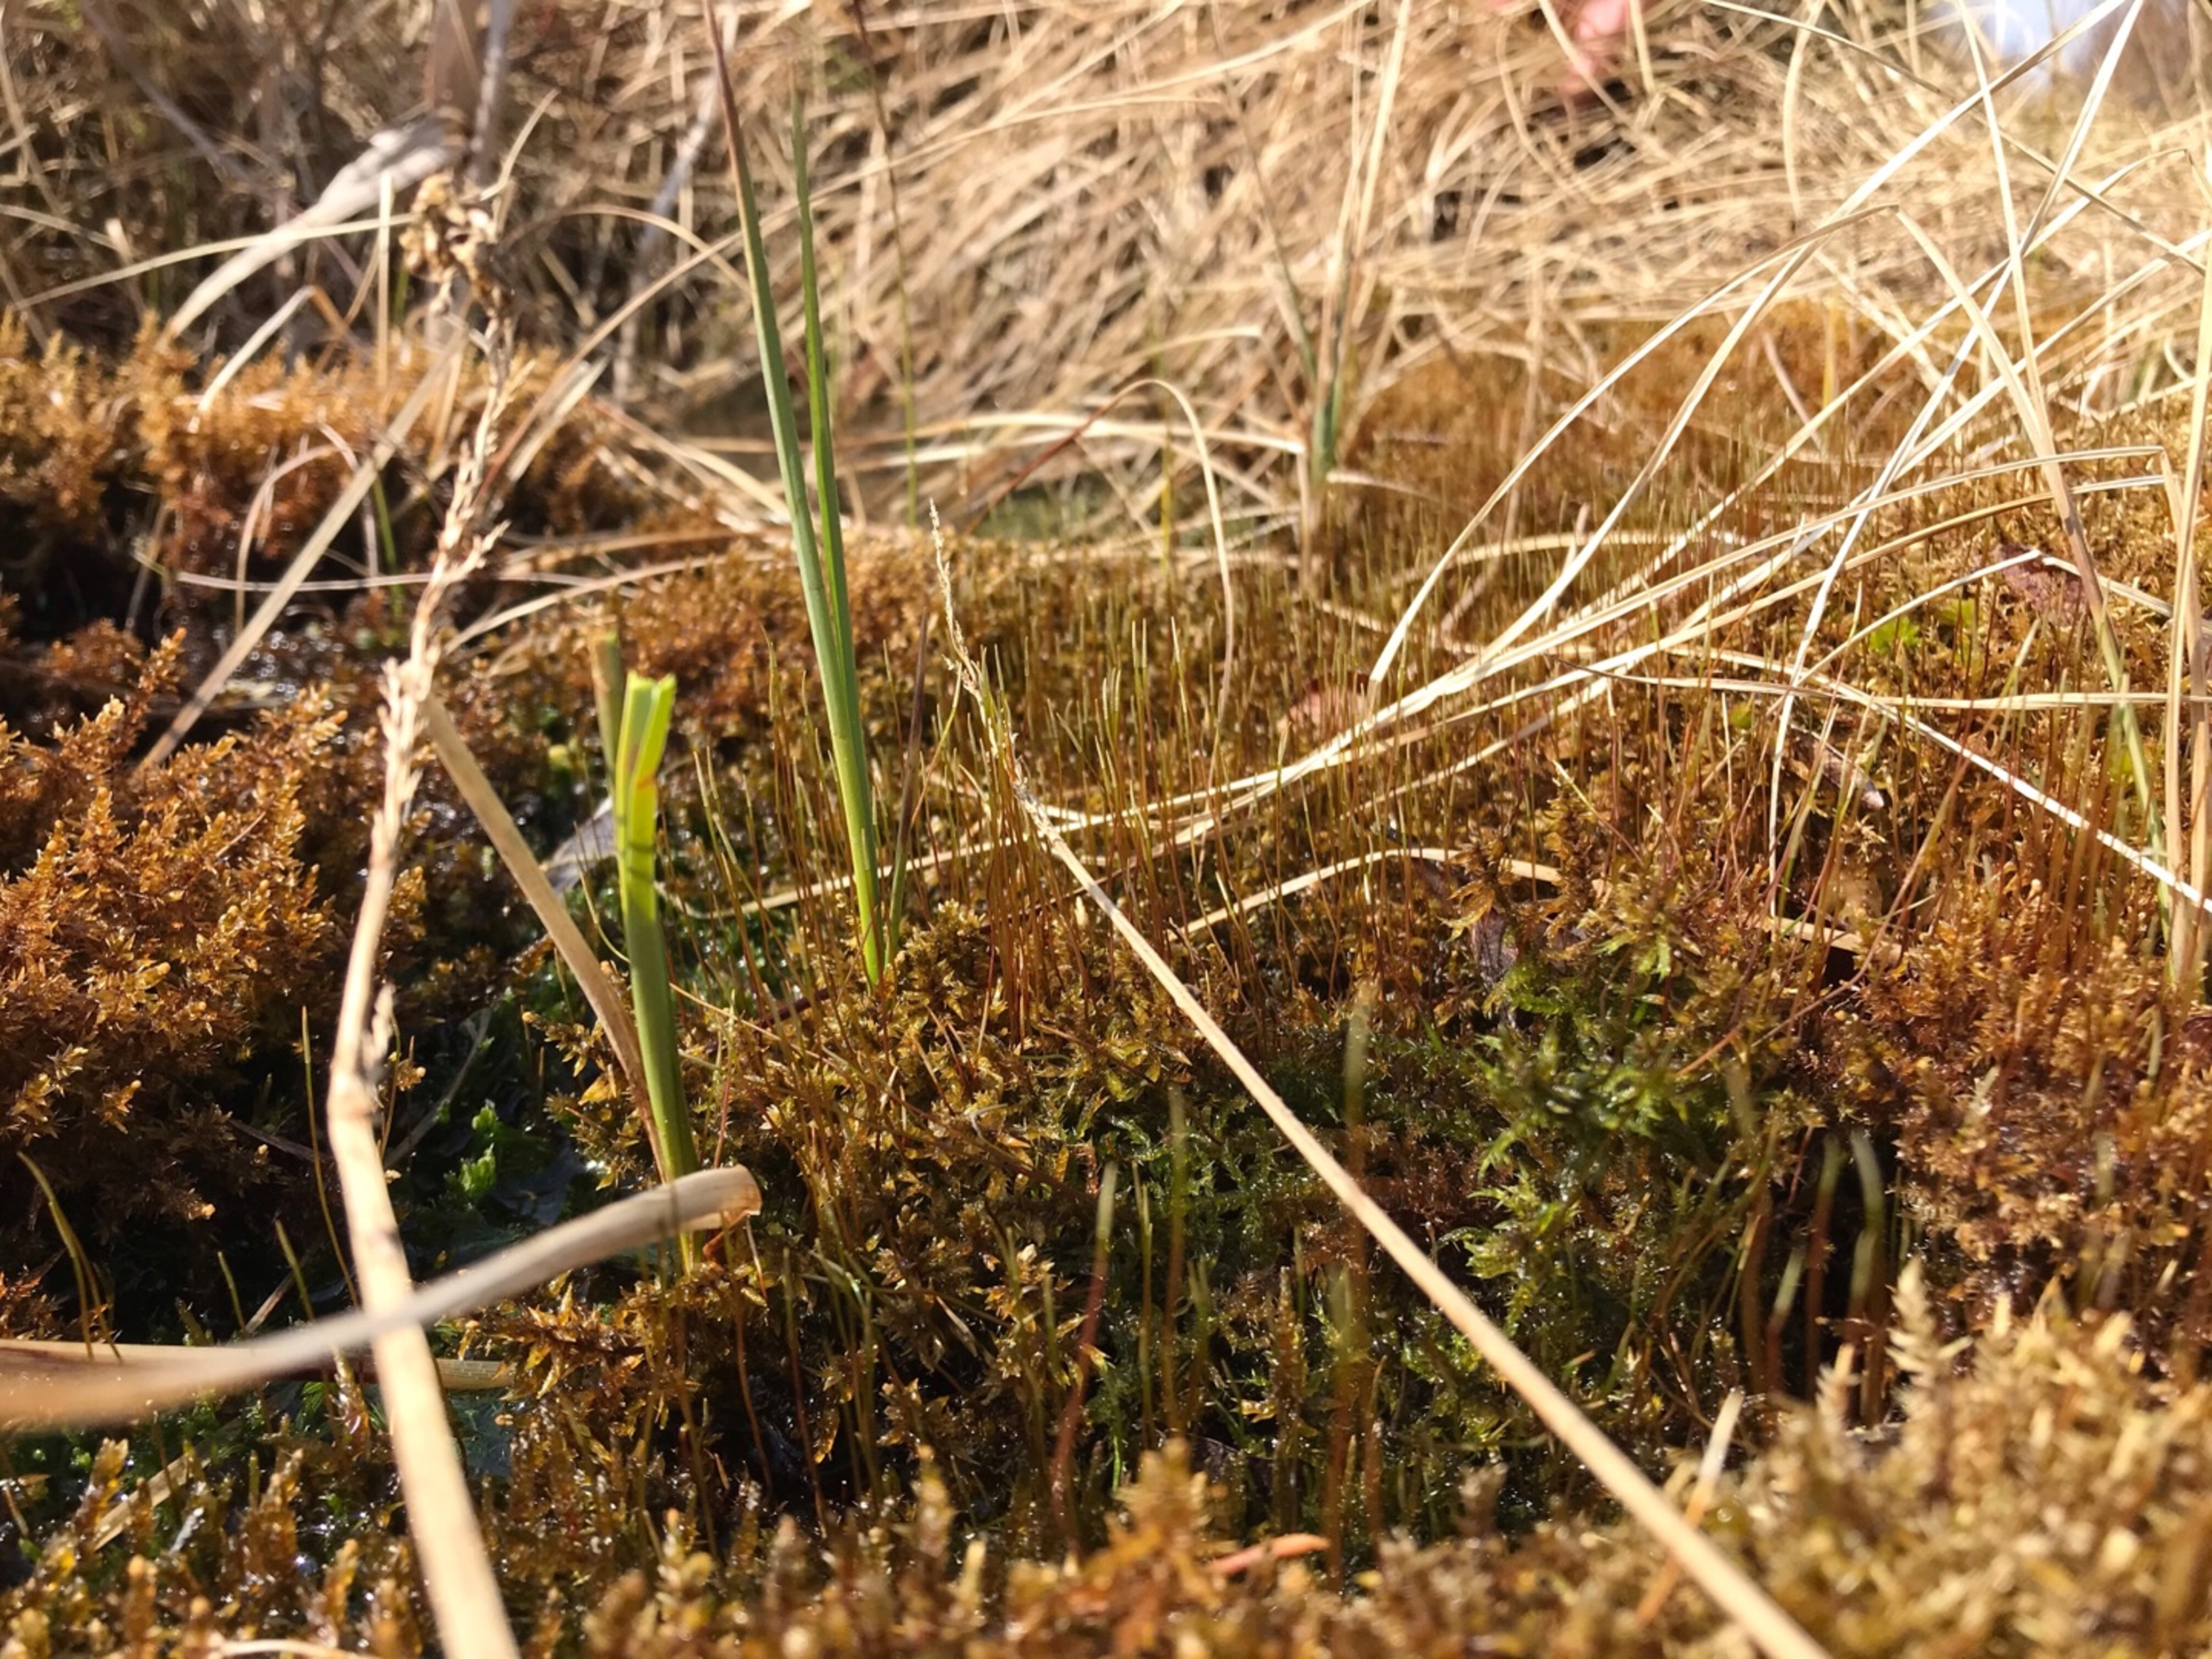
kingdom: Plantae
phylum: Bryophyta
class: Bryopsida
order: Hypnales
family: Calliergonaceae
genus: Calliergon
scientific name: Calliergon giganteum
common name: Stor skebladsmos
